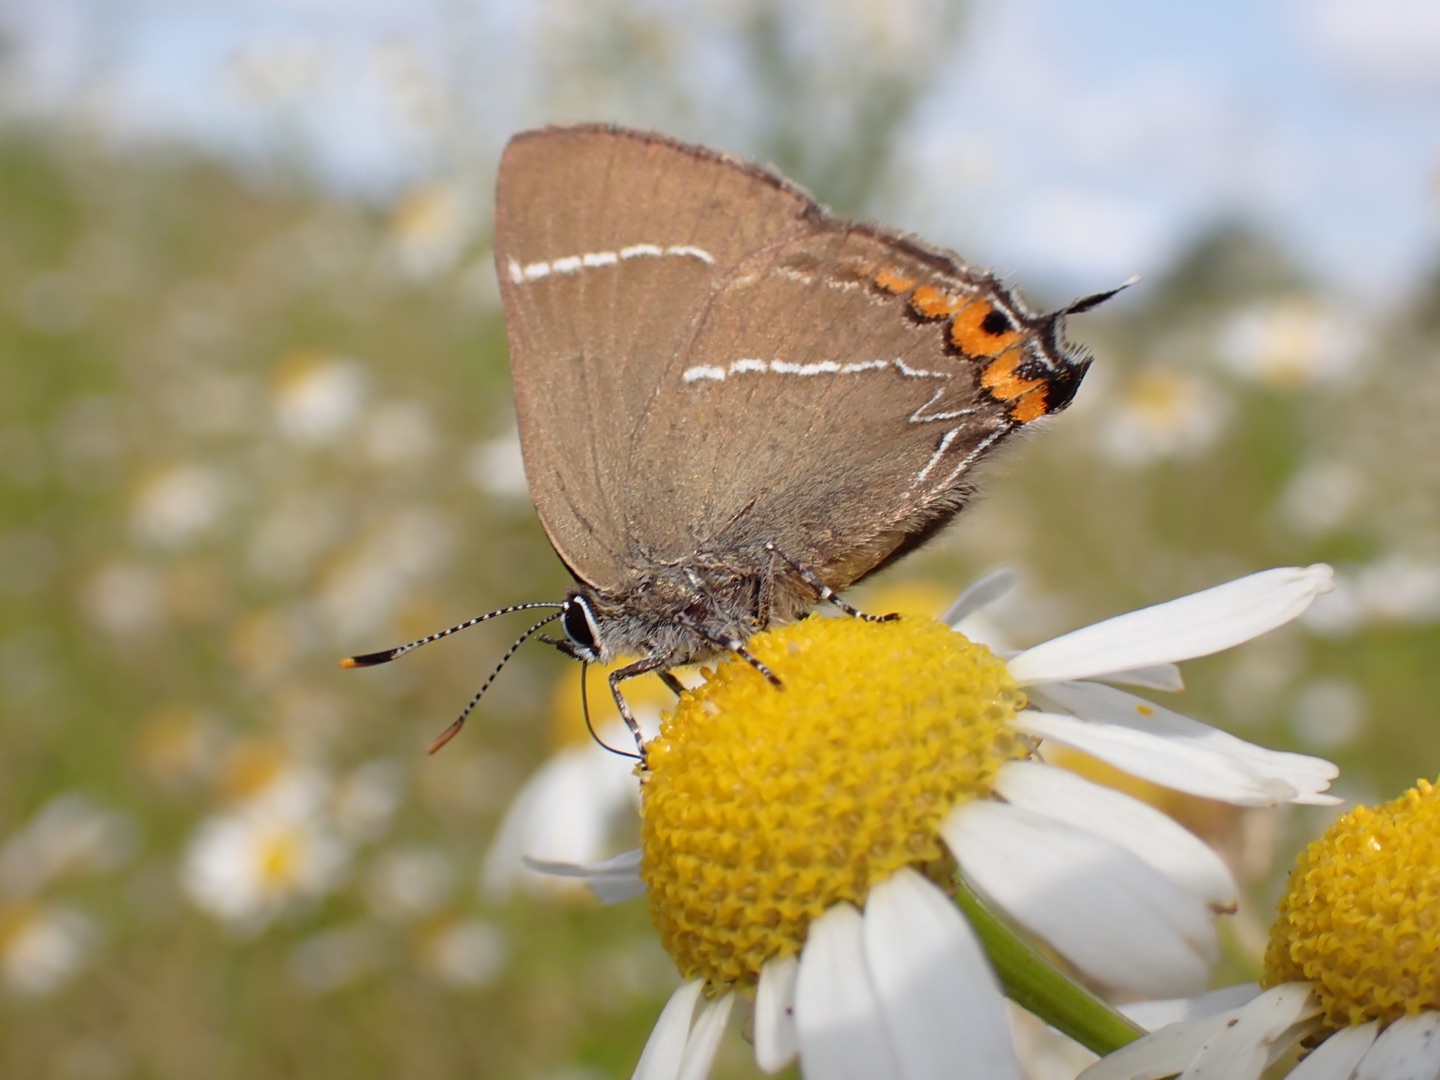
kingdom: Animalia
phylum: Arthropoda
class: Insecta
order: Lepidoptera
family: Lycaenidae
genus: Satyrium
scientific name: Satyrium w-album
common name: Det hvide W
